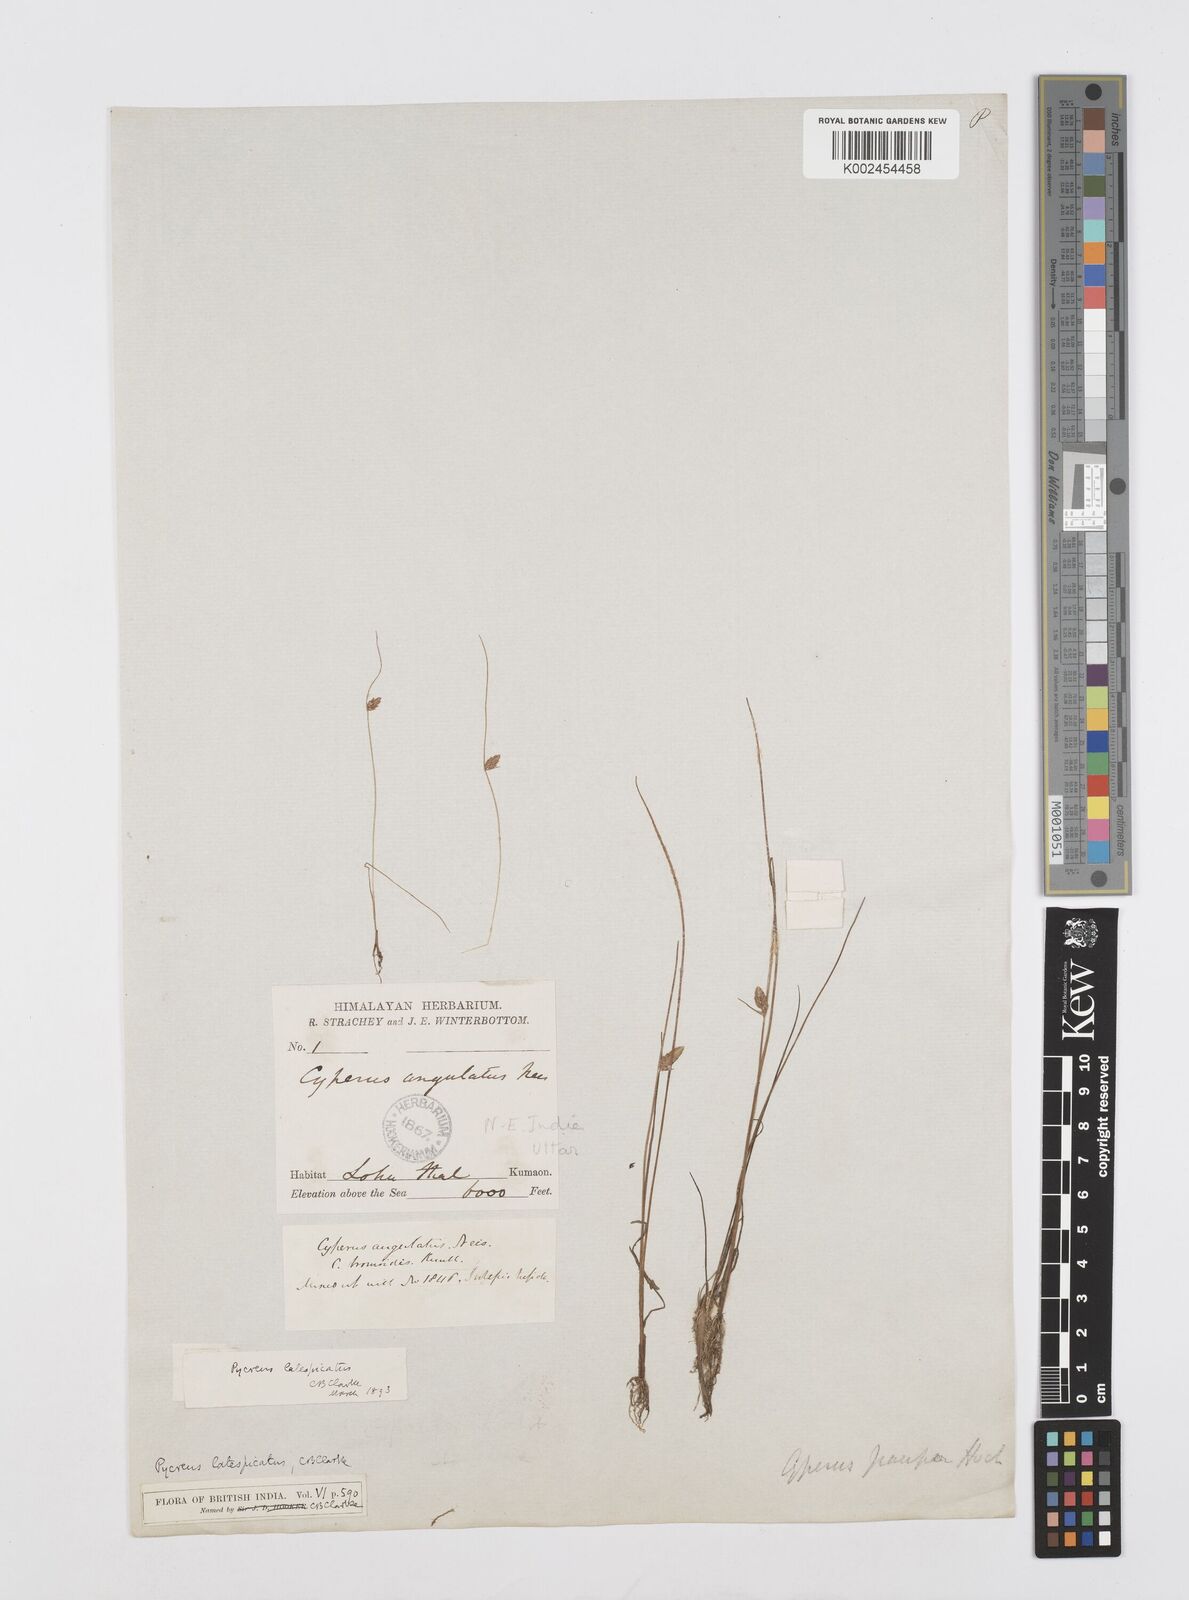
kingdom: Plantae
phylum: Tracheophyta
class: Liliopsida
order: Poales
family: Cyperaceae
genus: Cyperus
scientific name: Cyperus diaphanus
